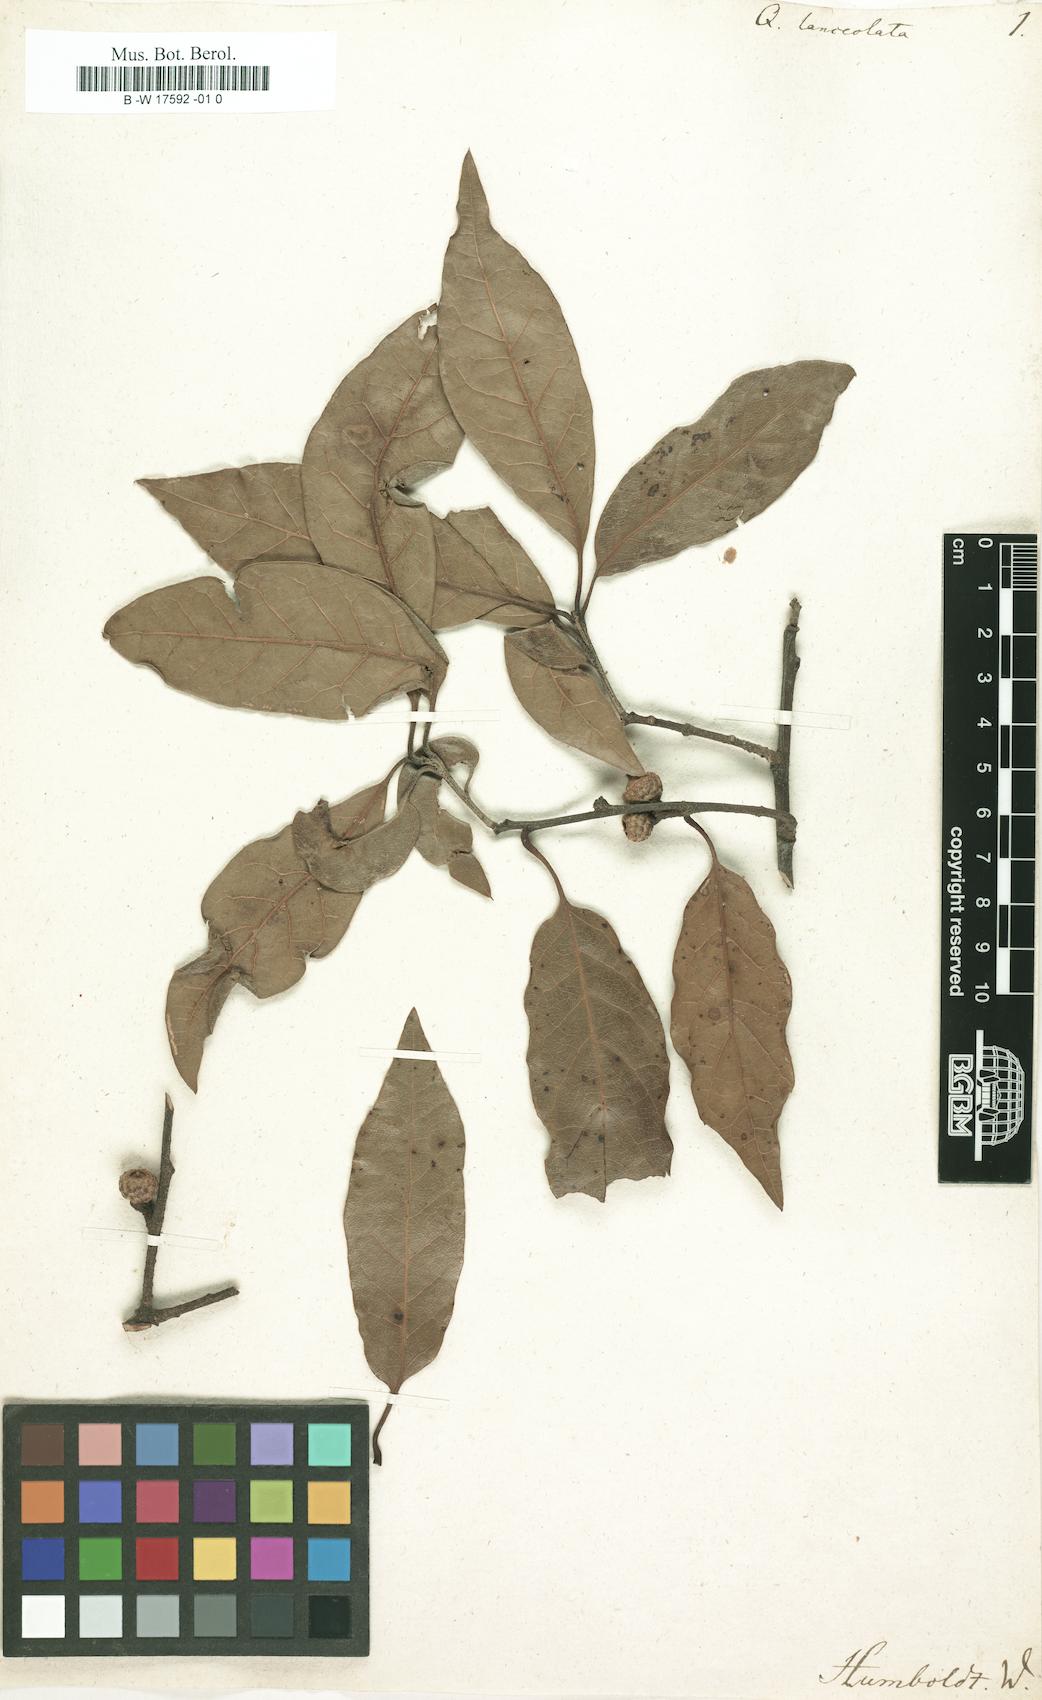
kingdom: Plantae
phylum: Tracheophyta
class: Magnoliopsida
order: Fagales
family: Fagaceae
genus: Quercus
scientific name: Quercus laurina
